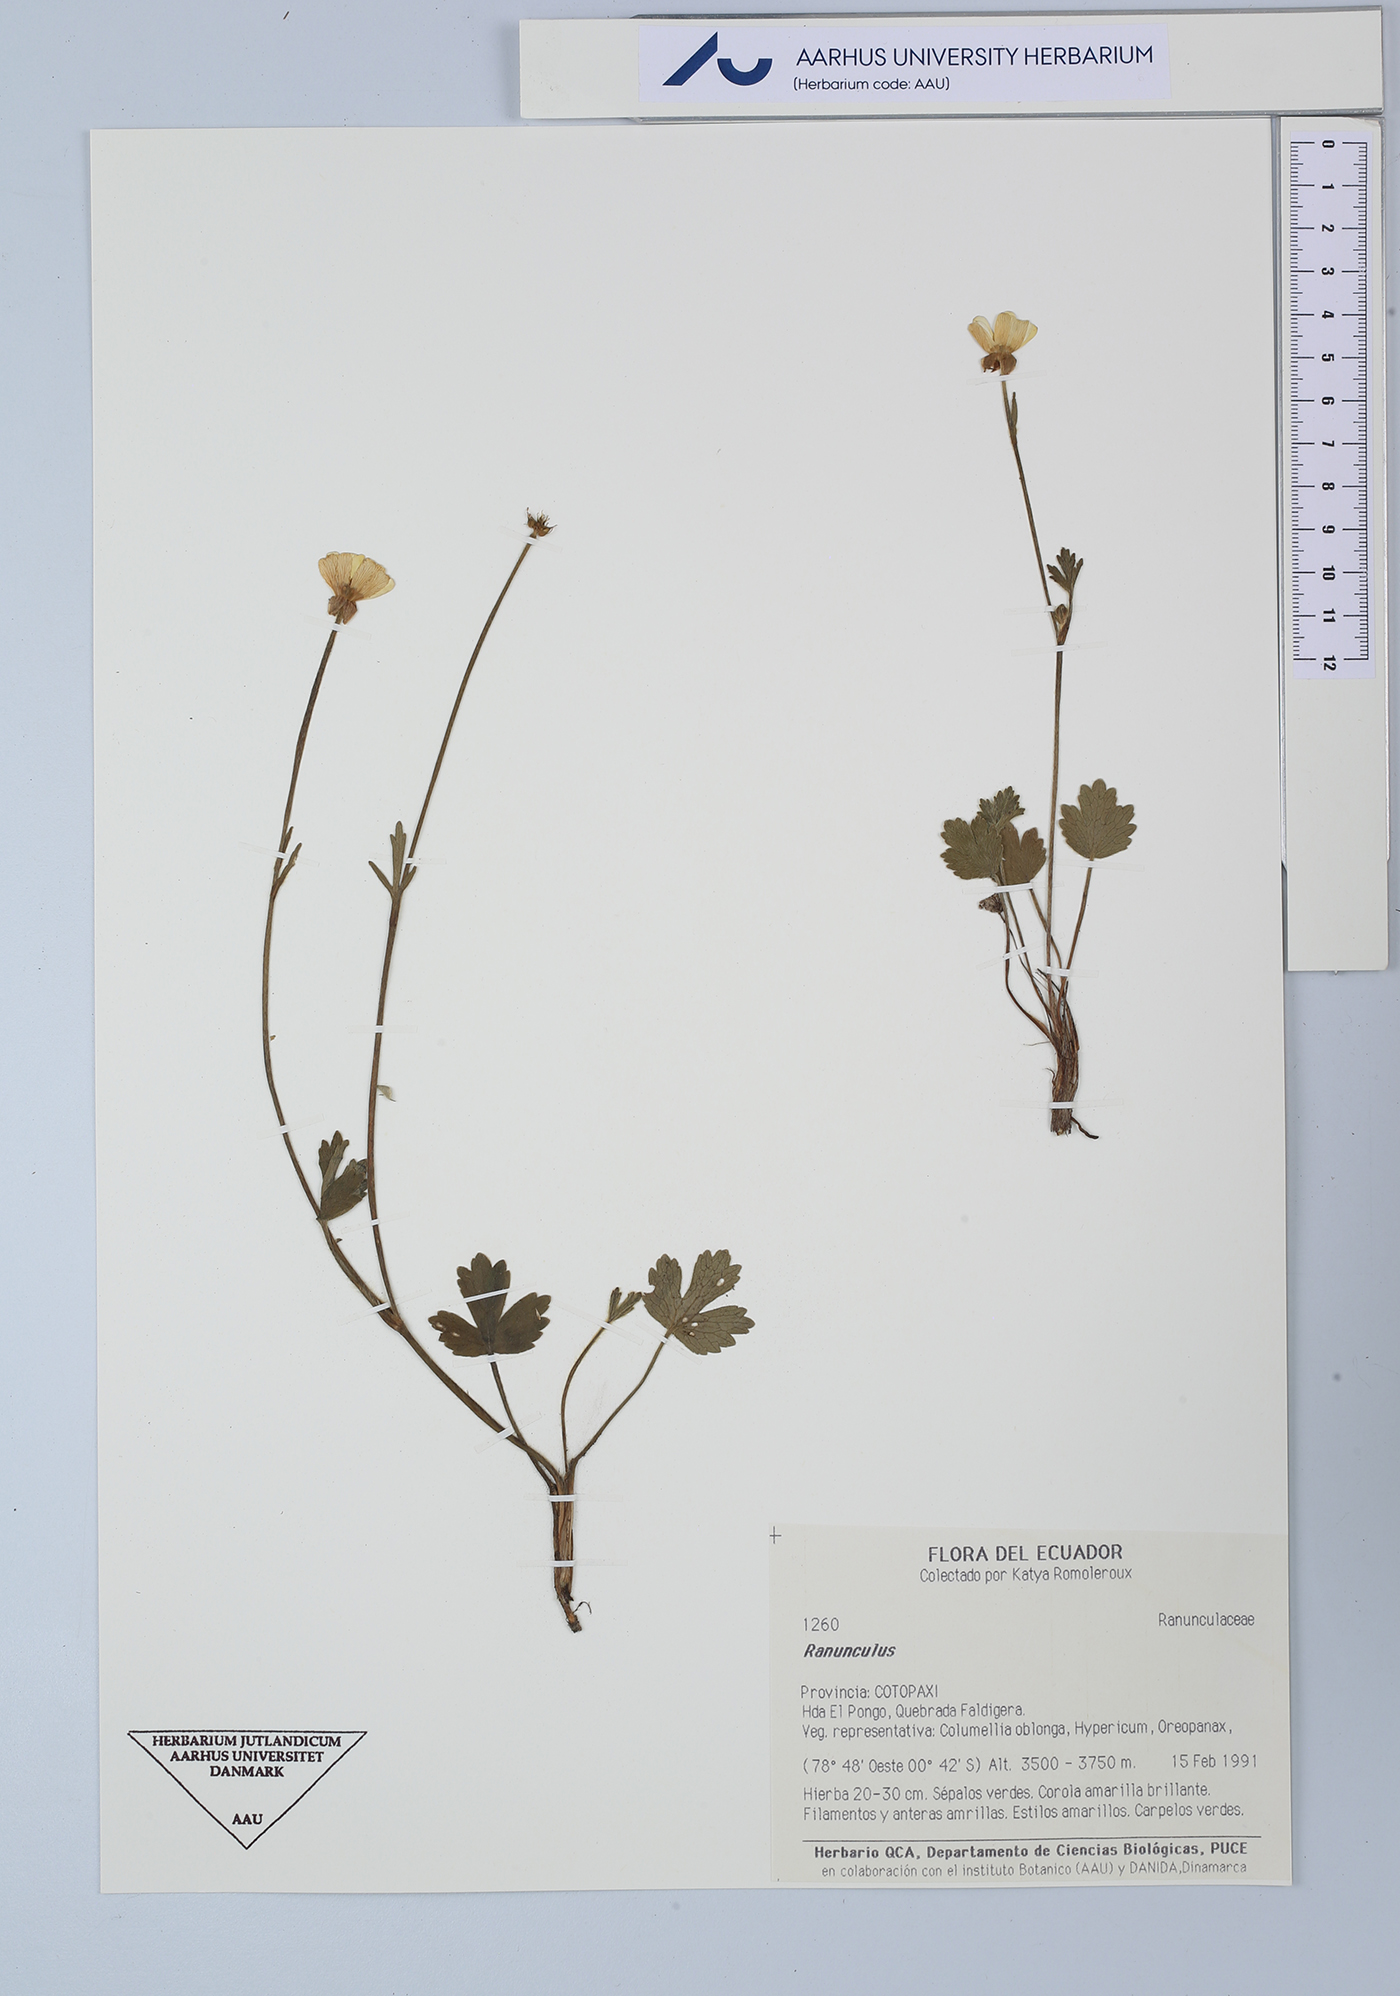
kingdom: Plantae
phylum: Tracheophyta
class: Magnoliopsida
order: Ranunculales
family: Ranunculaceae
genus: Ranunculus
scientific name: Ranunculus
